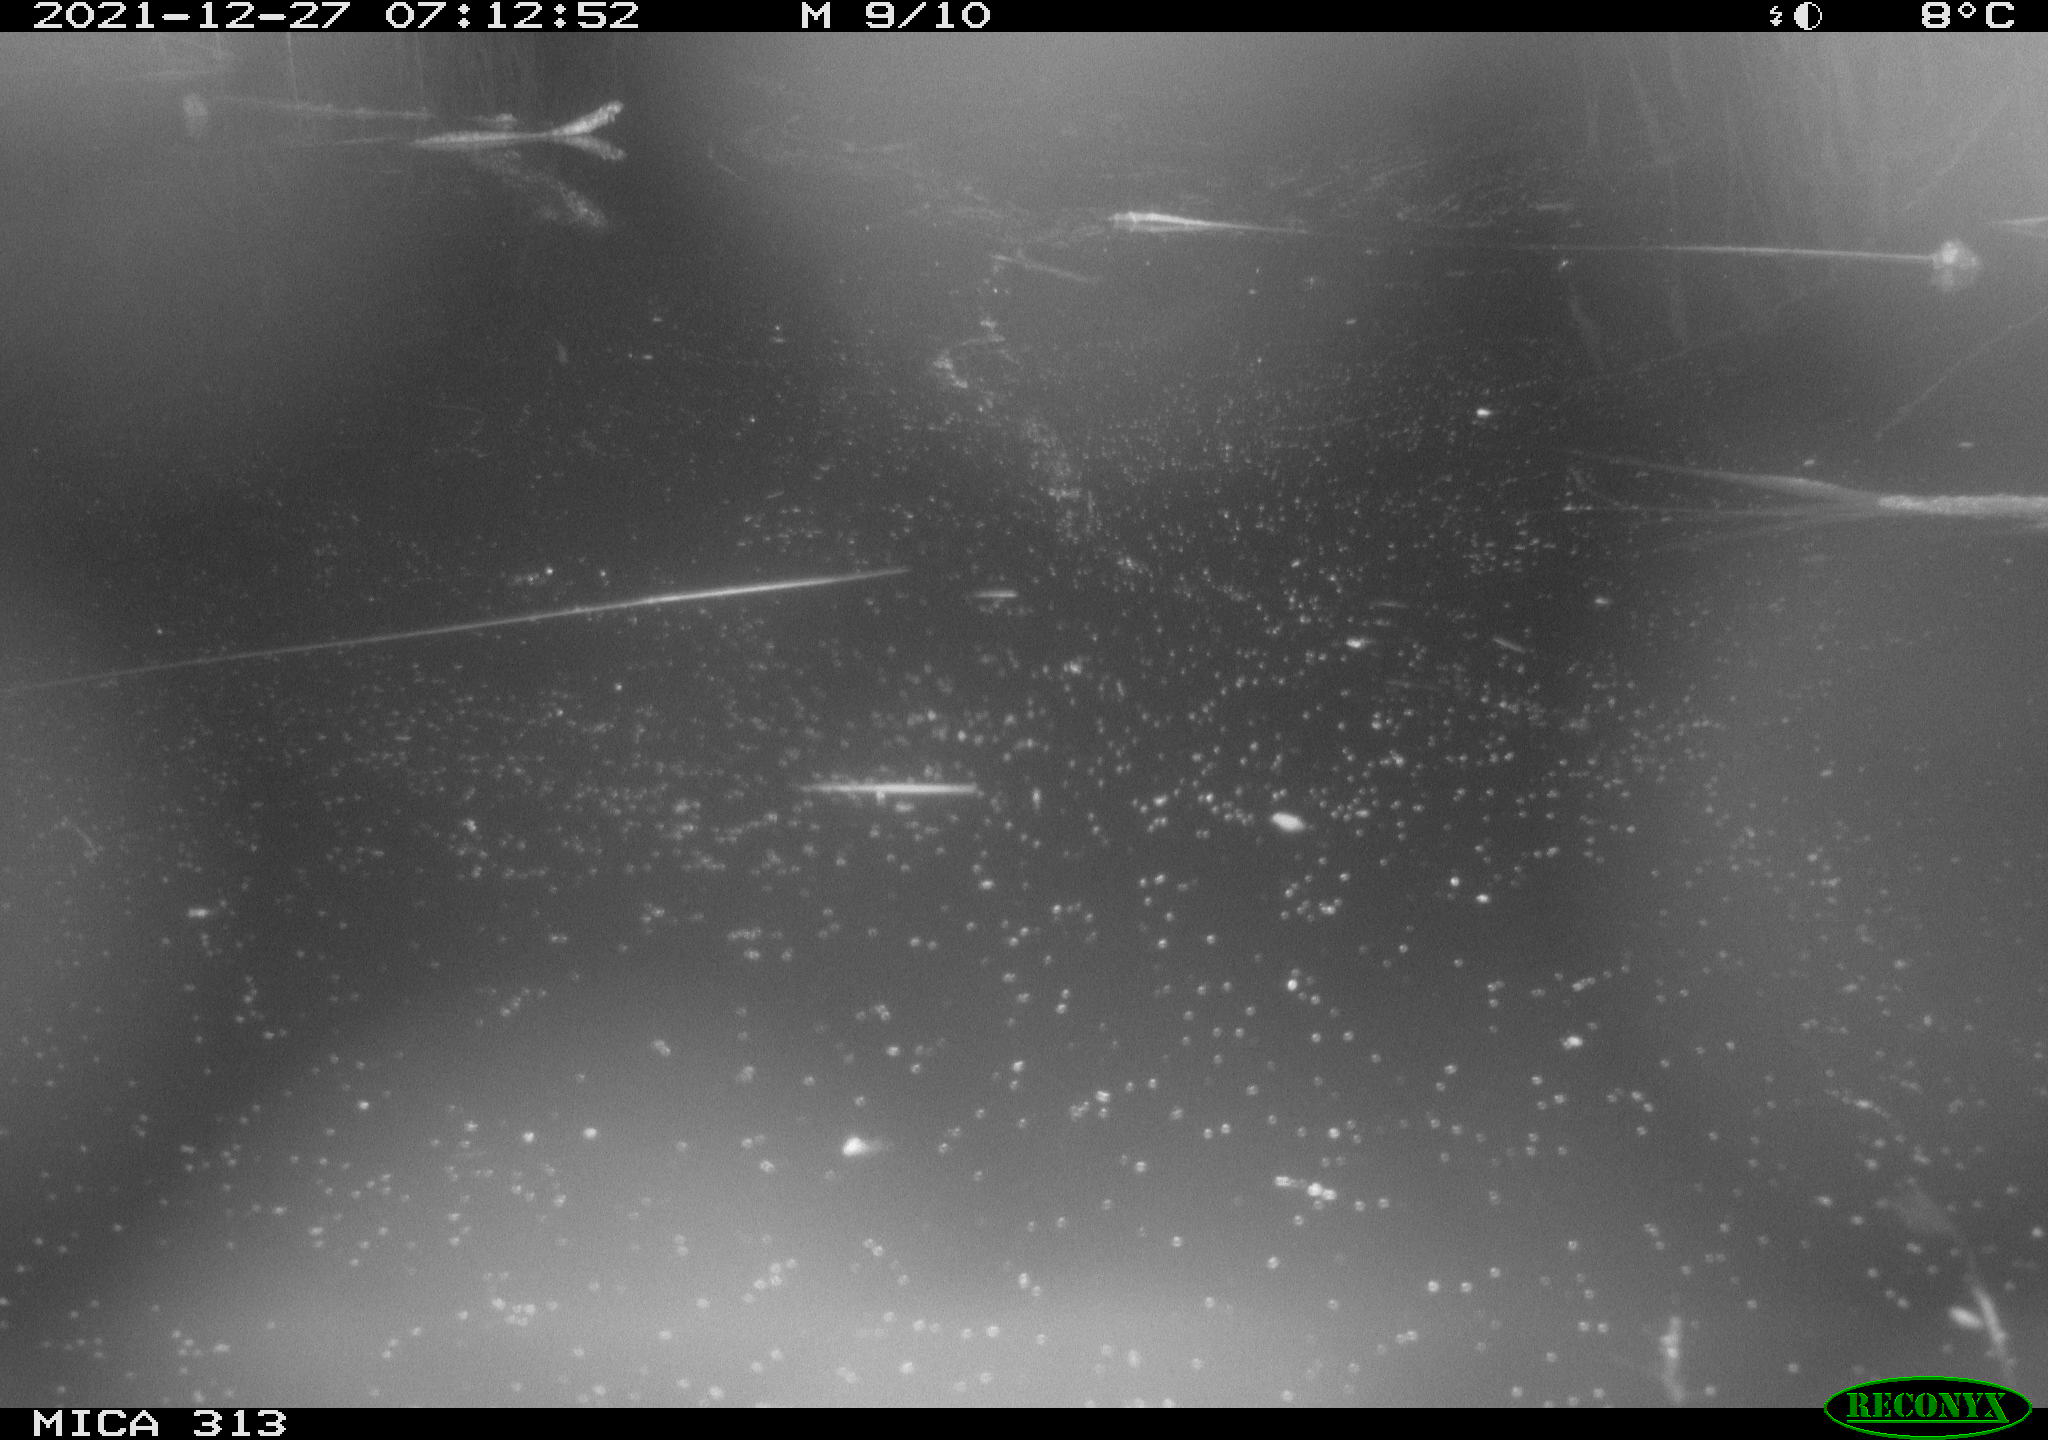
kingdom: Animalia
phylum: Chordata
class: Aves
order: Gruiformes
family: Rallidae
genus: Gallinula
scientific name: Gallinula chloropus
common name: Common moorhen
